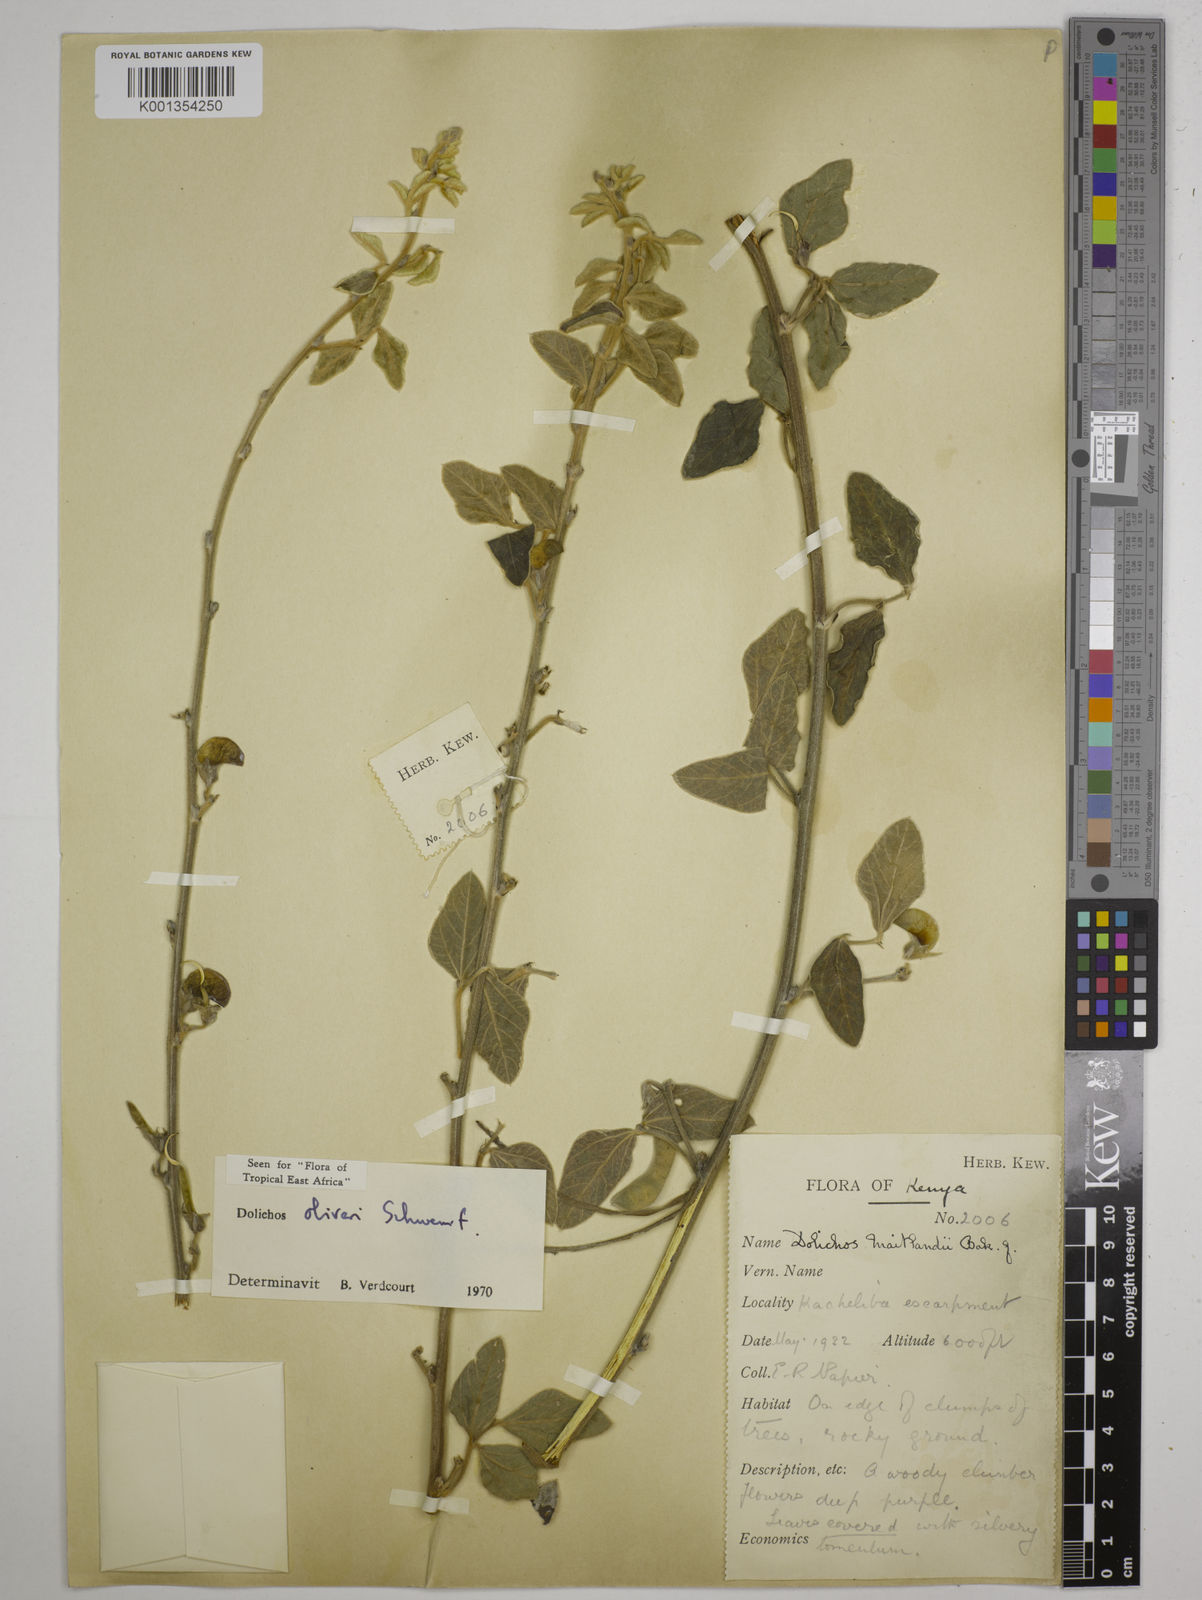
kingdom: Plantae
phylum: Tracheophyta
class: Magnoliopsida
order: Fabales
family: Fabaceae
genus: Dolichos
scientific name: Dolichos oliveri
